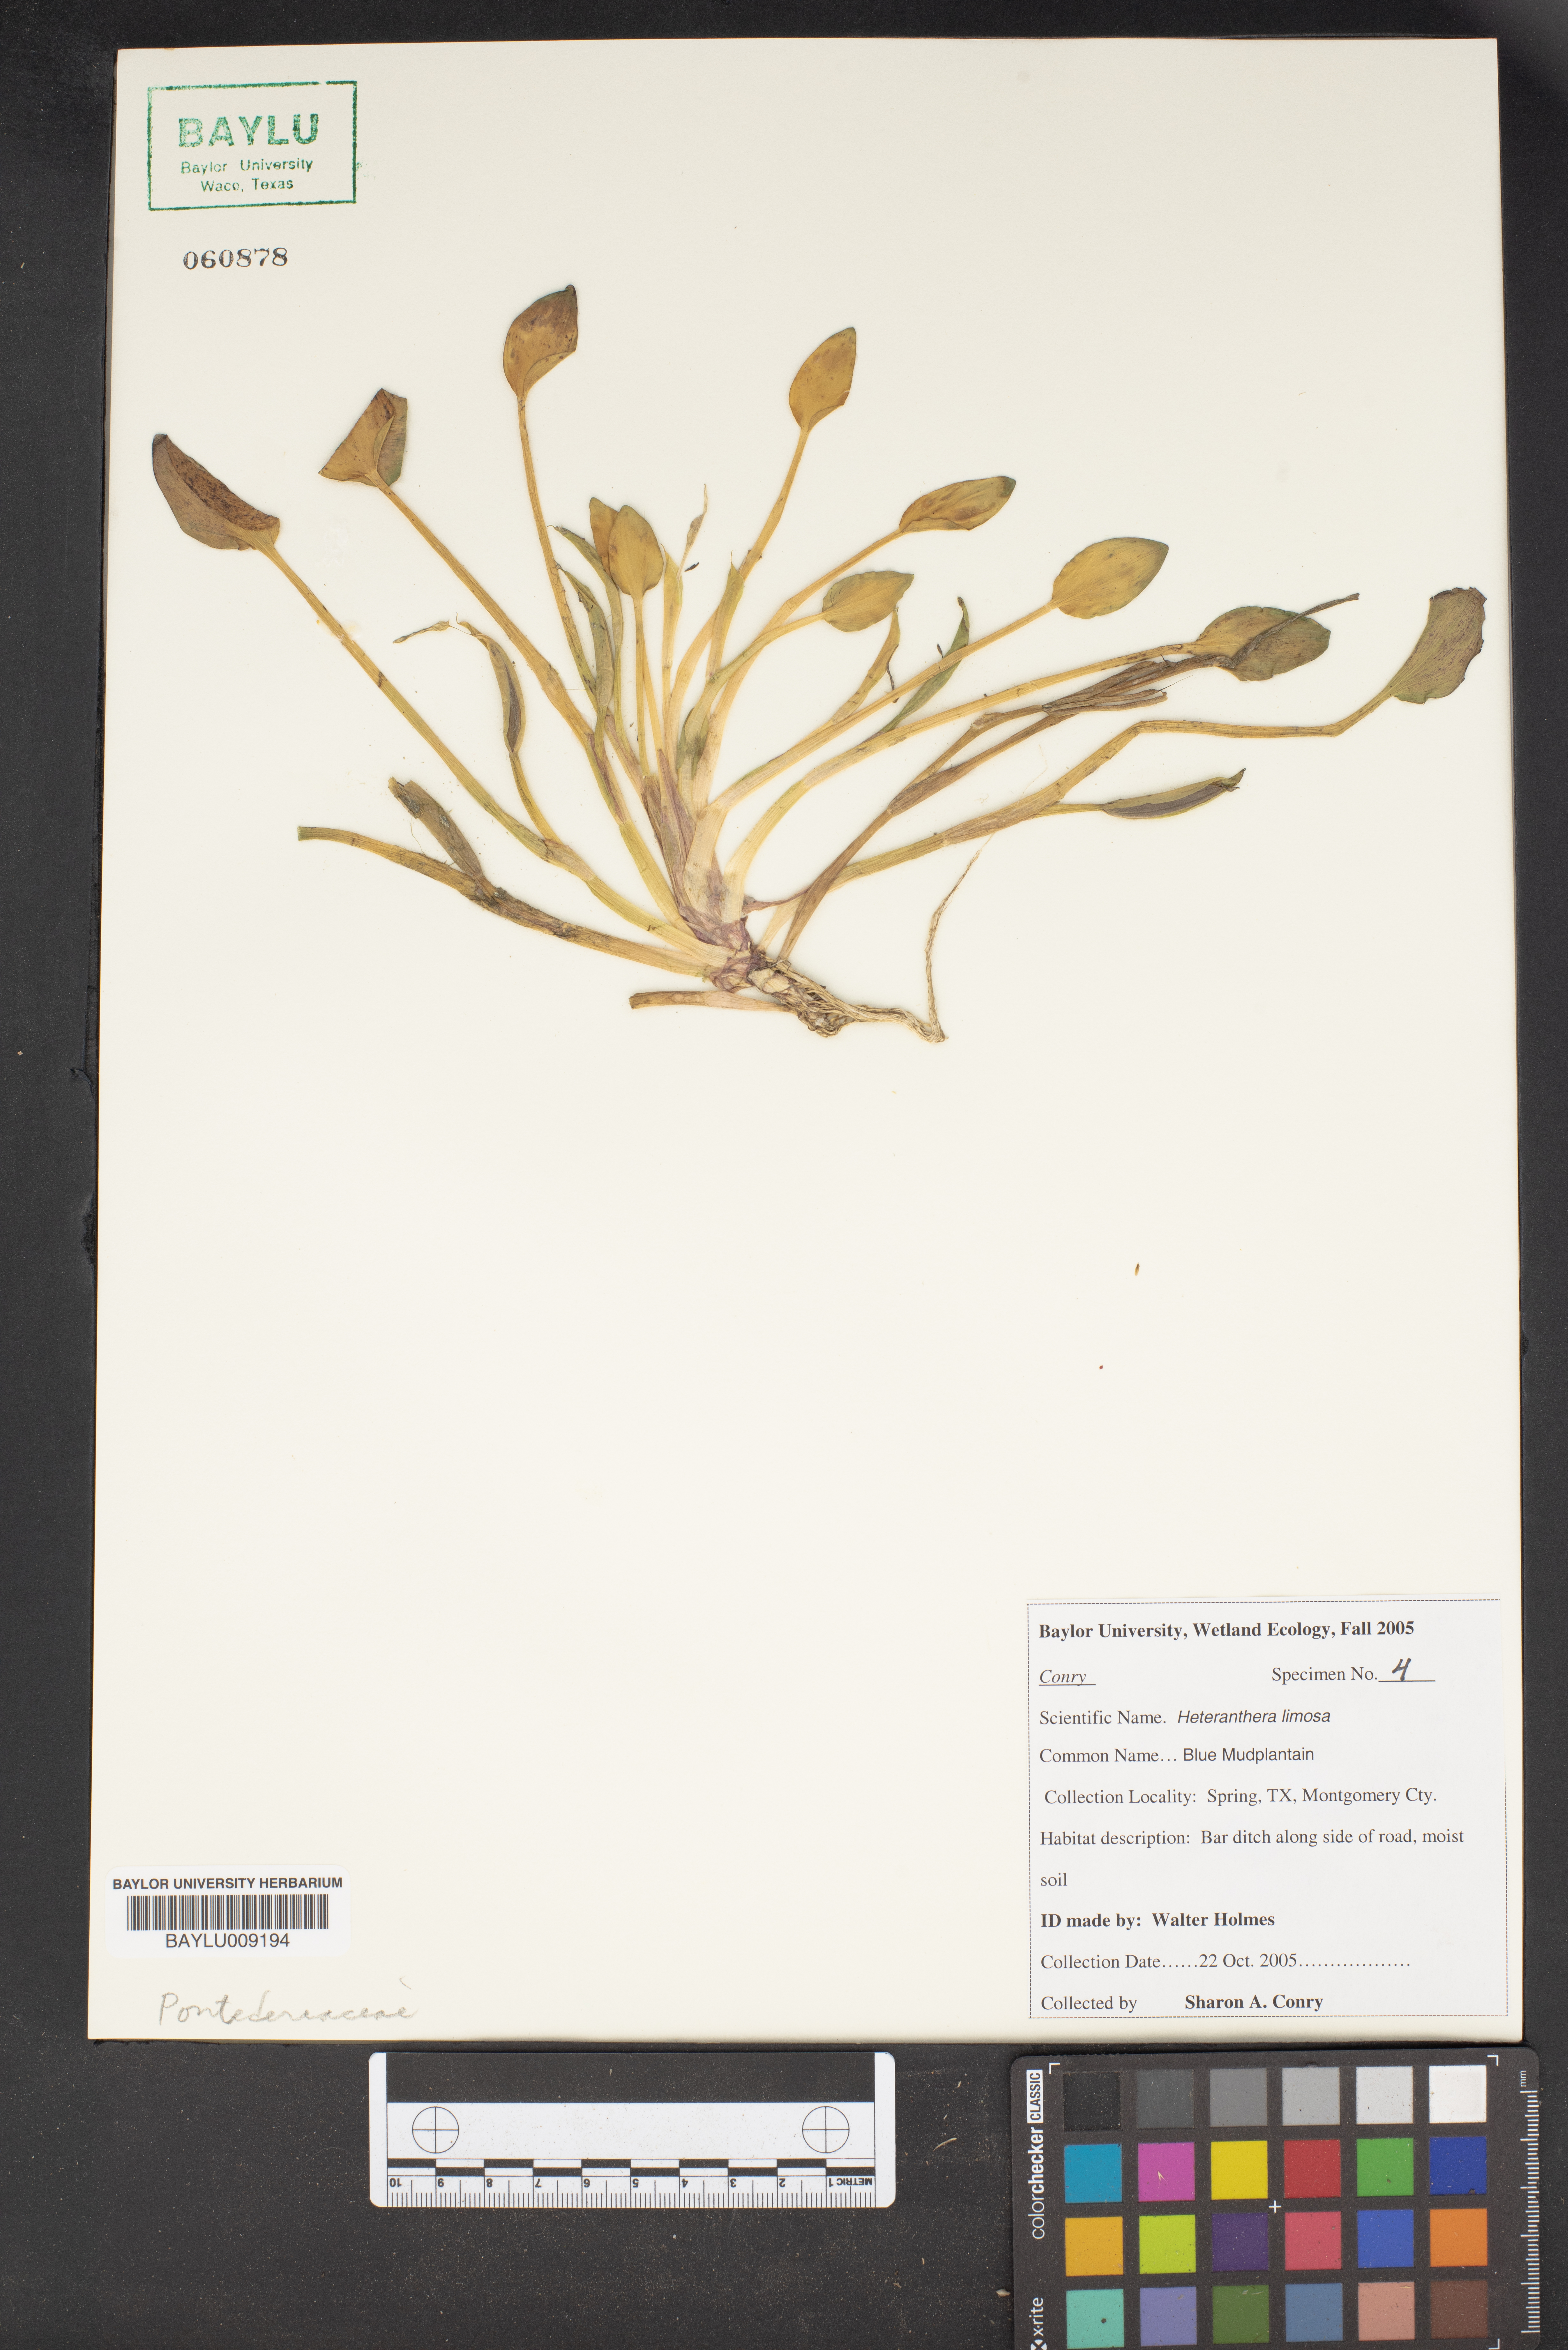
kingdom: Plantae
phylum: Tracheophyta
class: Liliopsida
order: Commelinales
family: Pontederiaceae
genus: Heteranthera
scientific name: Heteranthera limosa
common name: Blue mud-plantain
